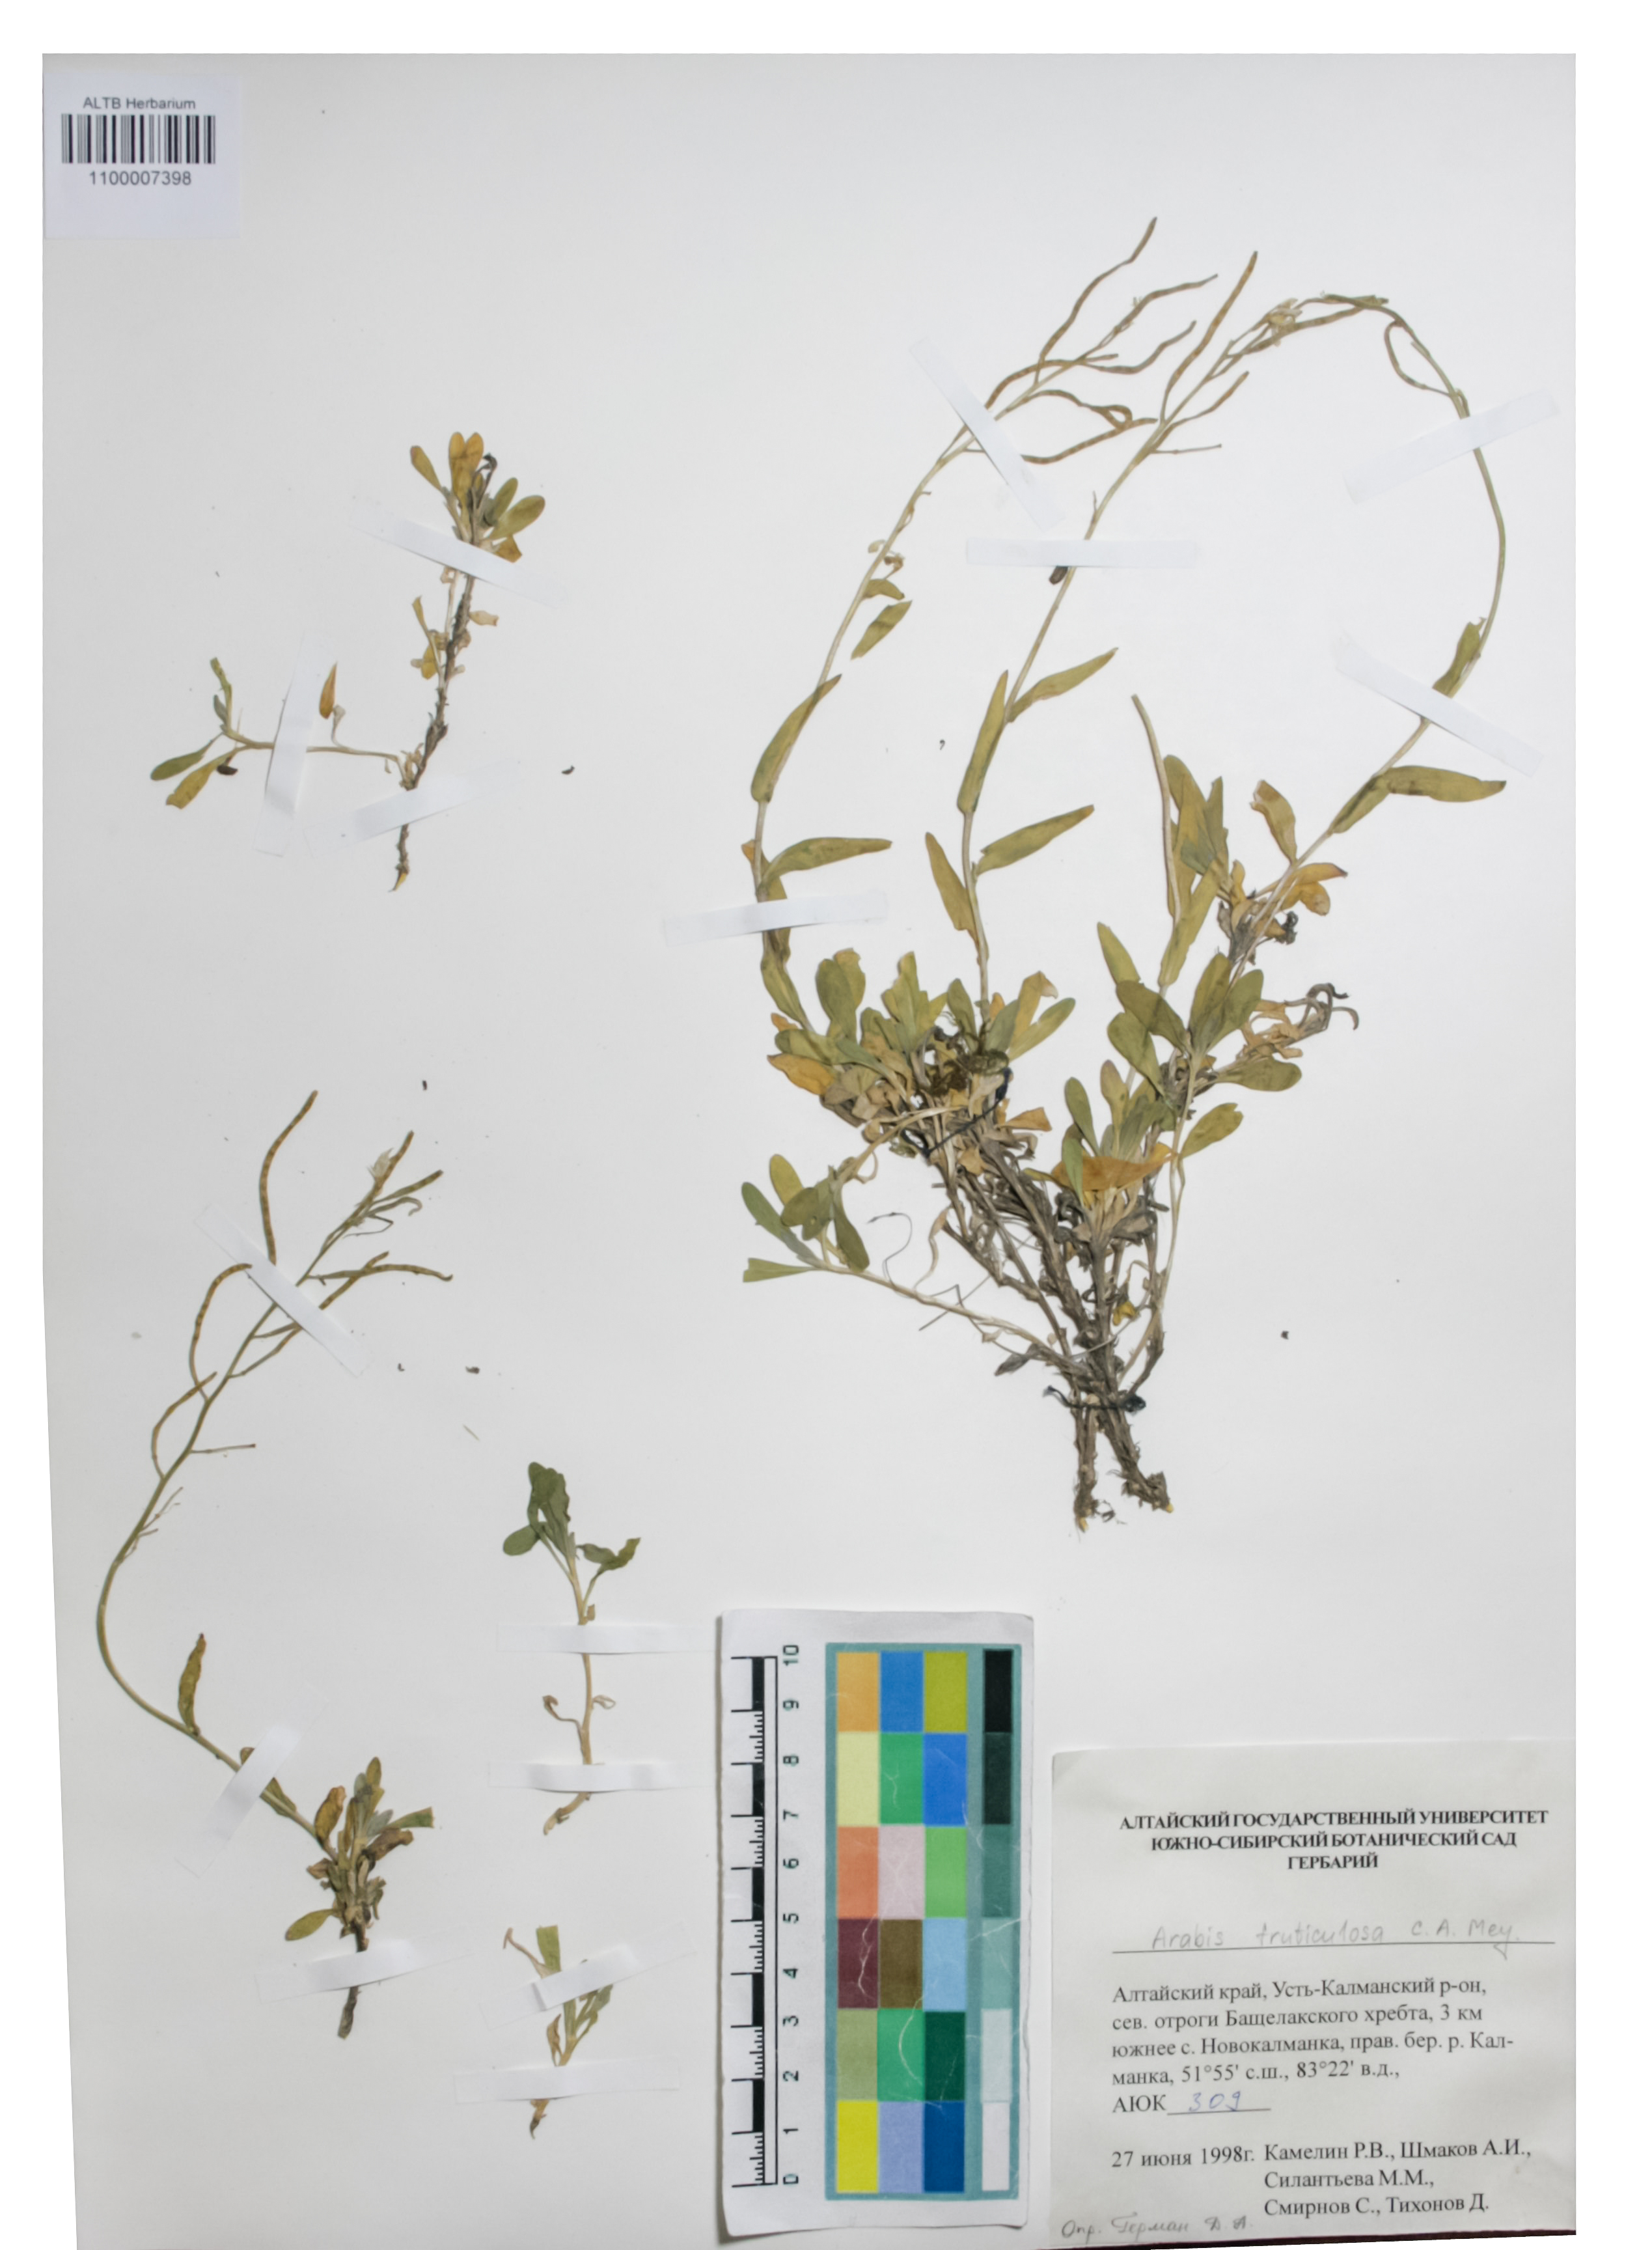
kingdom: Plantae
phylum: Tracheophyta
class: Magnoliopsida
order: Brassicales
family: Brassicaceae
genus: Dendroarabis
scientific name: Dendroarabis fruticulosa
